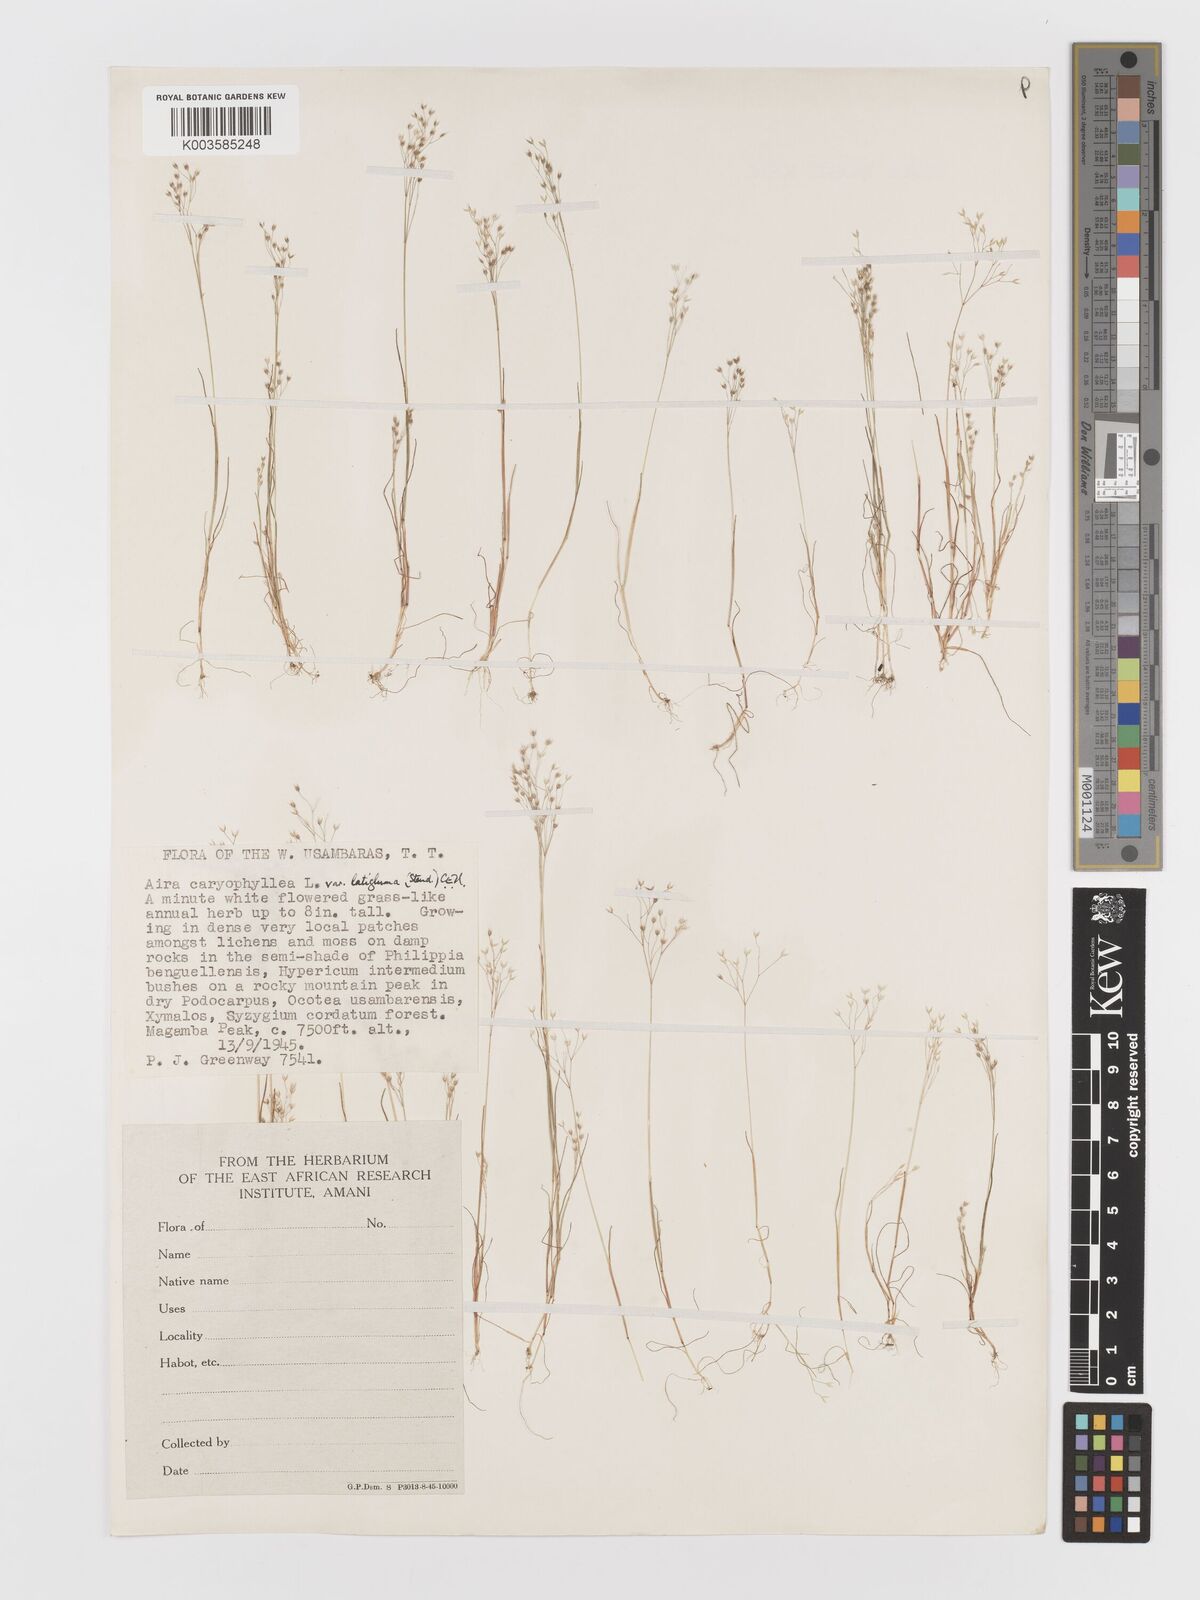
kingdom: Plantae
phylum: Tracheophyta
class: Liliopsida
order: Poales
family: Poaceae
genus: Aira
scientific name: Aira caryophyllea
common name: Silver hairgrass
